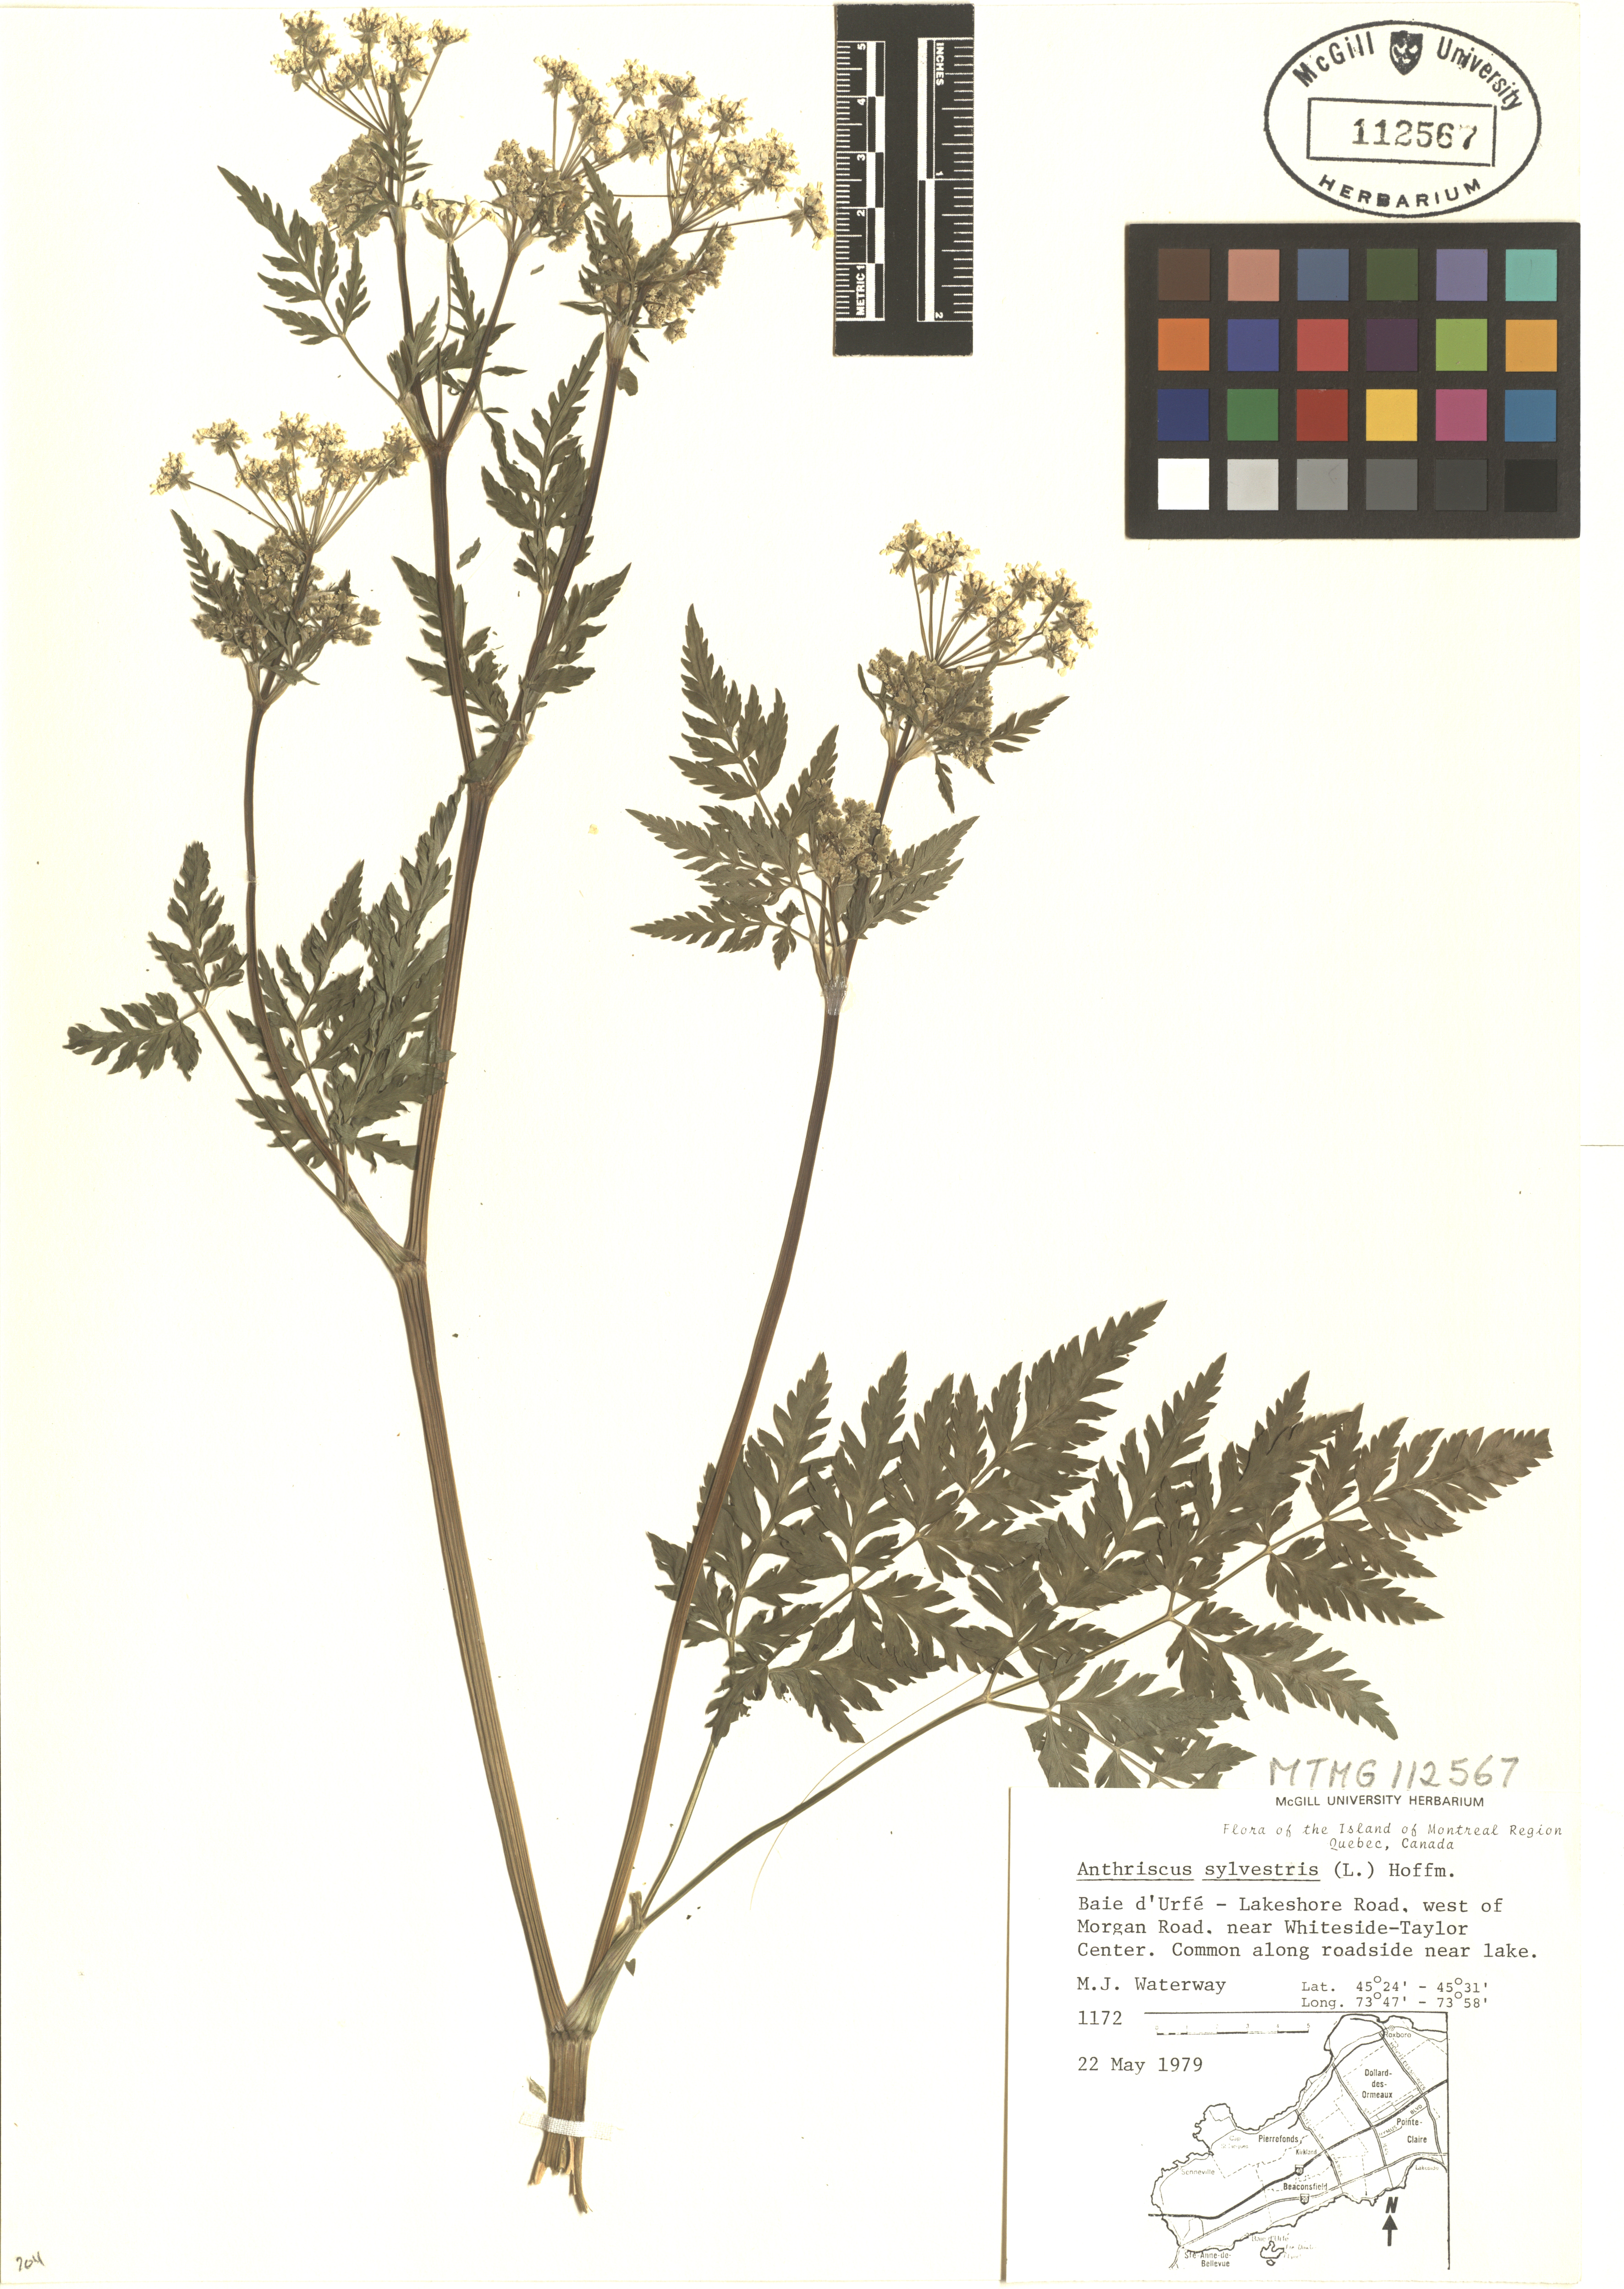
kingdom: Plantae
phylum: Tracheophyta
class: Magnoliopsida
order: Apiales
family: Apiaceae
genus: Anthriscus
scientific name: Anthriscus sylvestris
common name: Cow parsley
